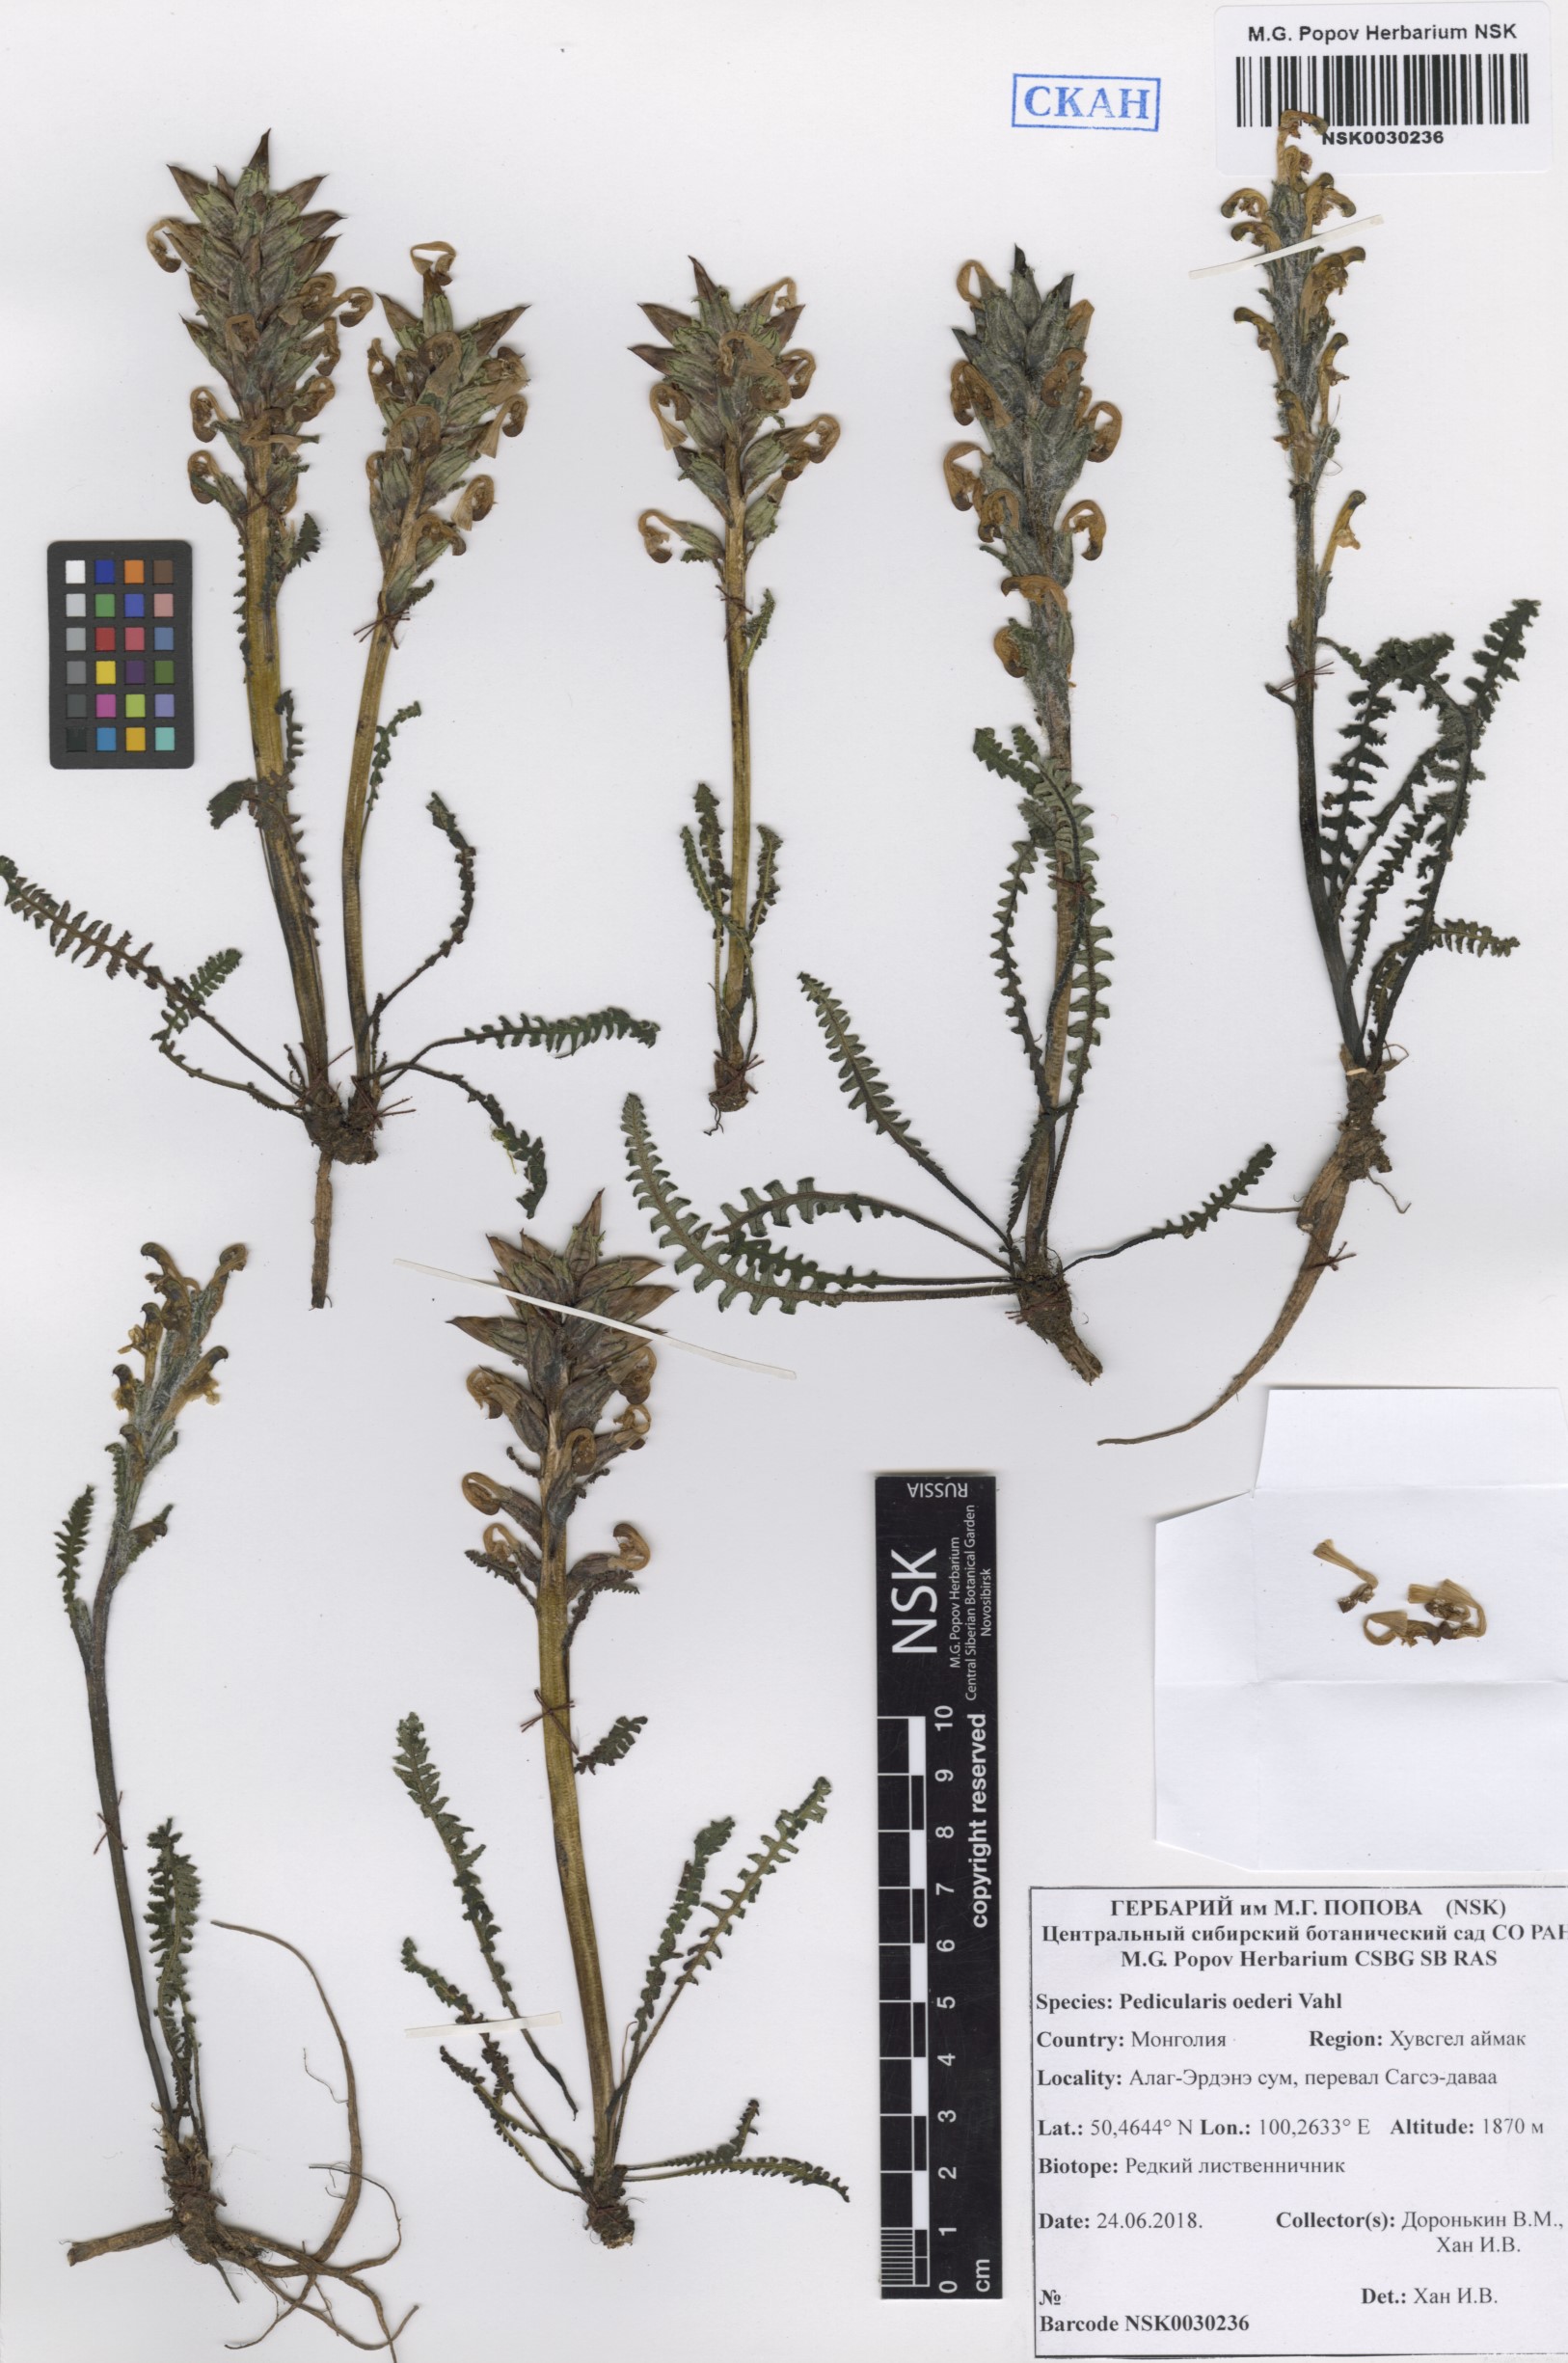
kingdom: Plantae
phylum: Tracheophyta
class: Magnoliopsida
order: Lamiales
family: Orobanchaceae
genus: Pedicularis
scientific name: Pedicularis oederi
